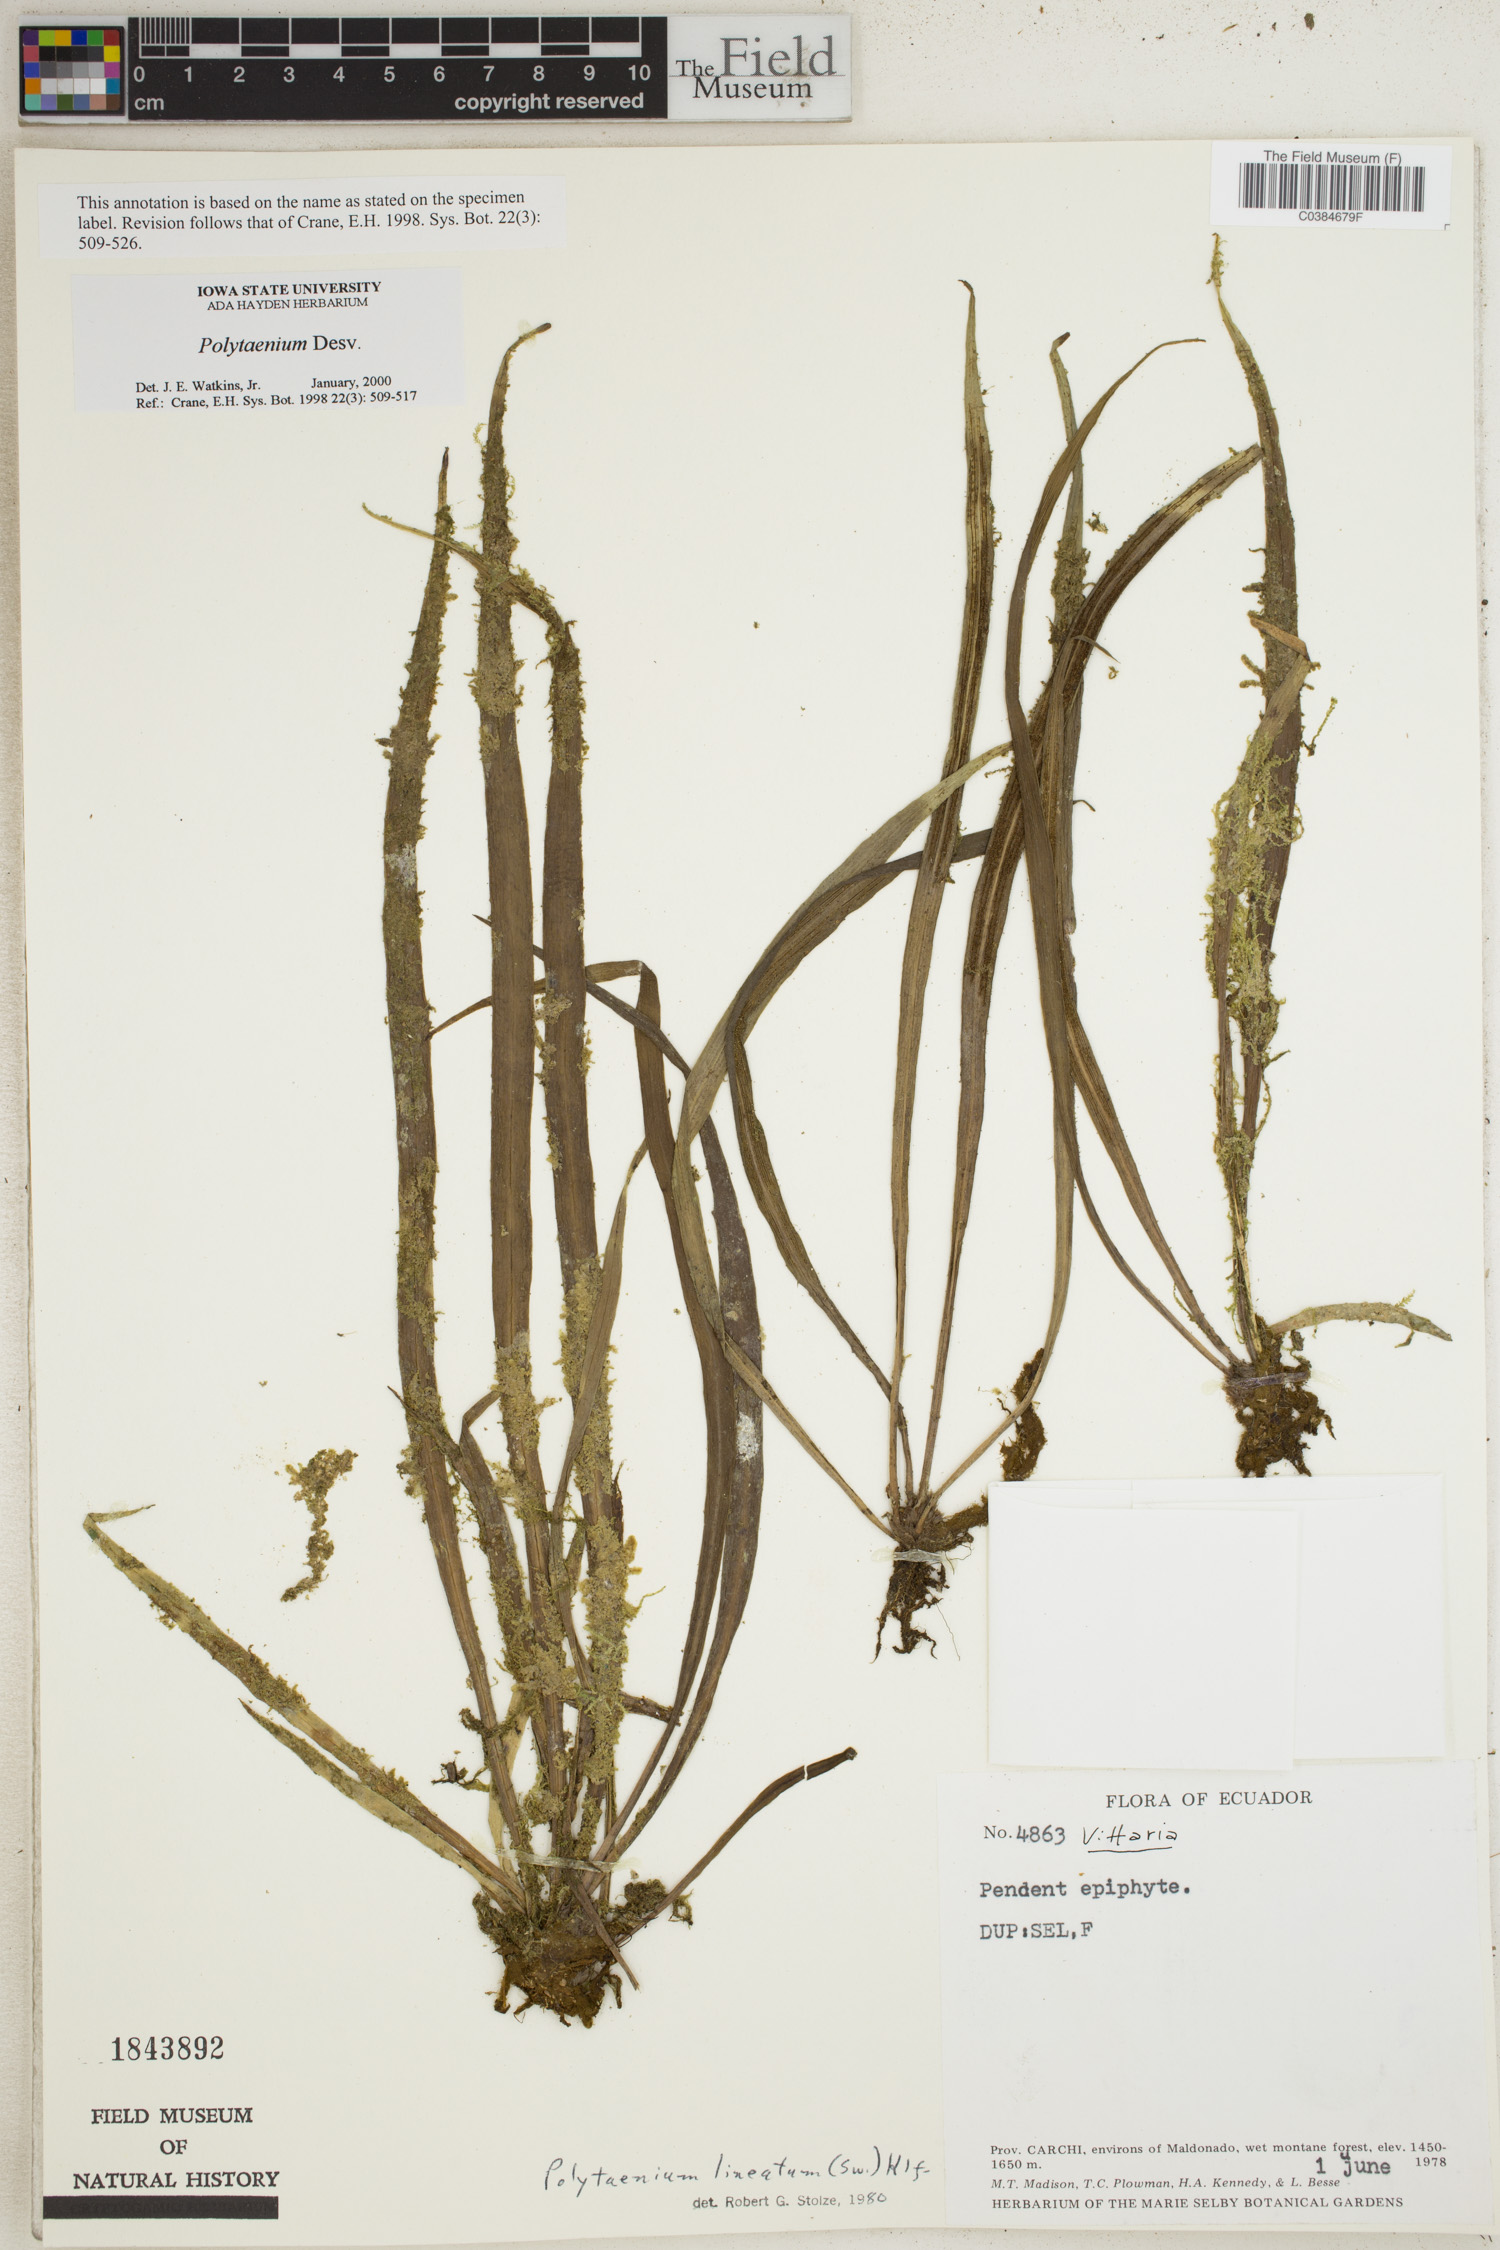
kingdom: Plantae
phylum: Tracheophyta
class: Polypodiopsida
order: Polypodiales
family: Pteridaceae
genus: Polytaenium
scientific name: Polytaenium
